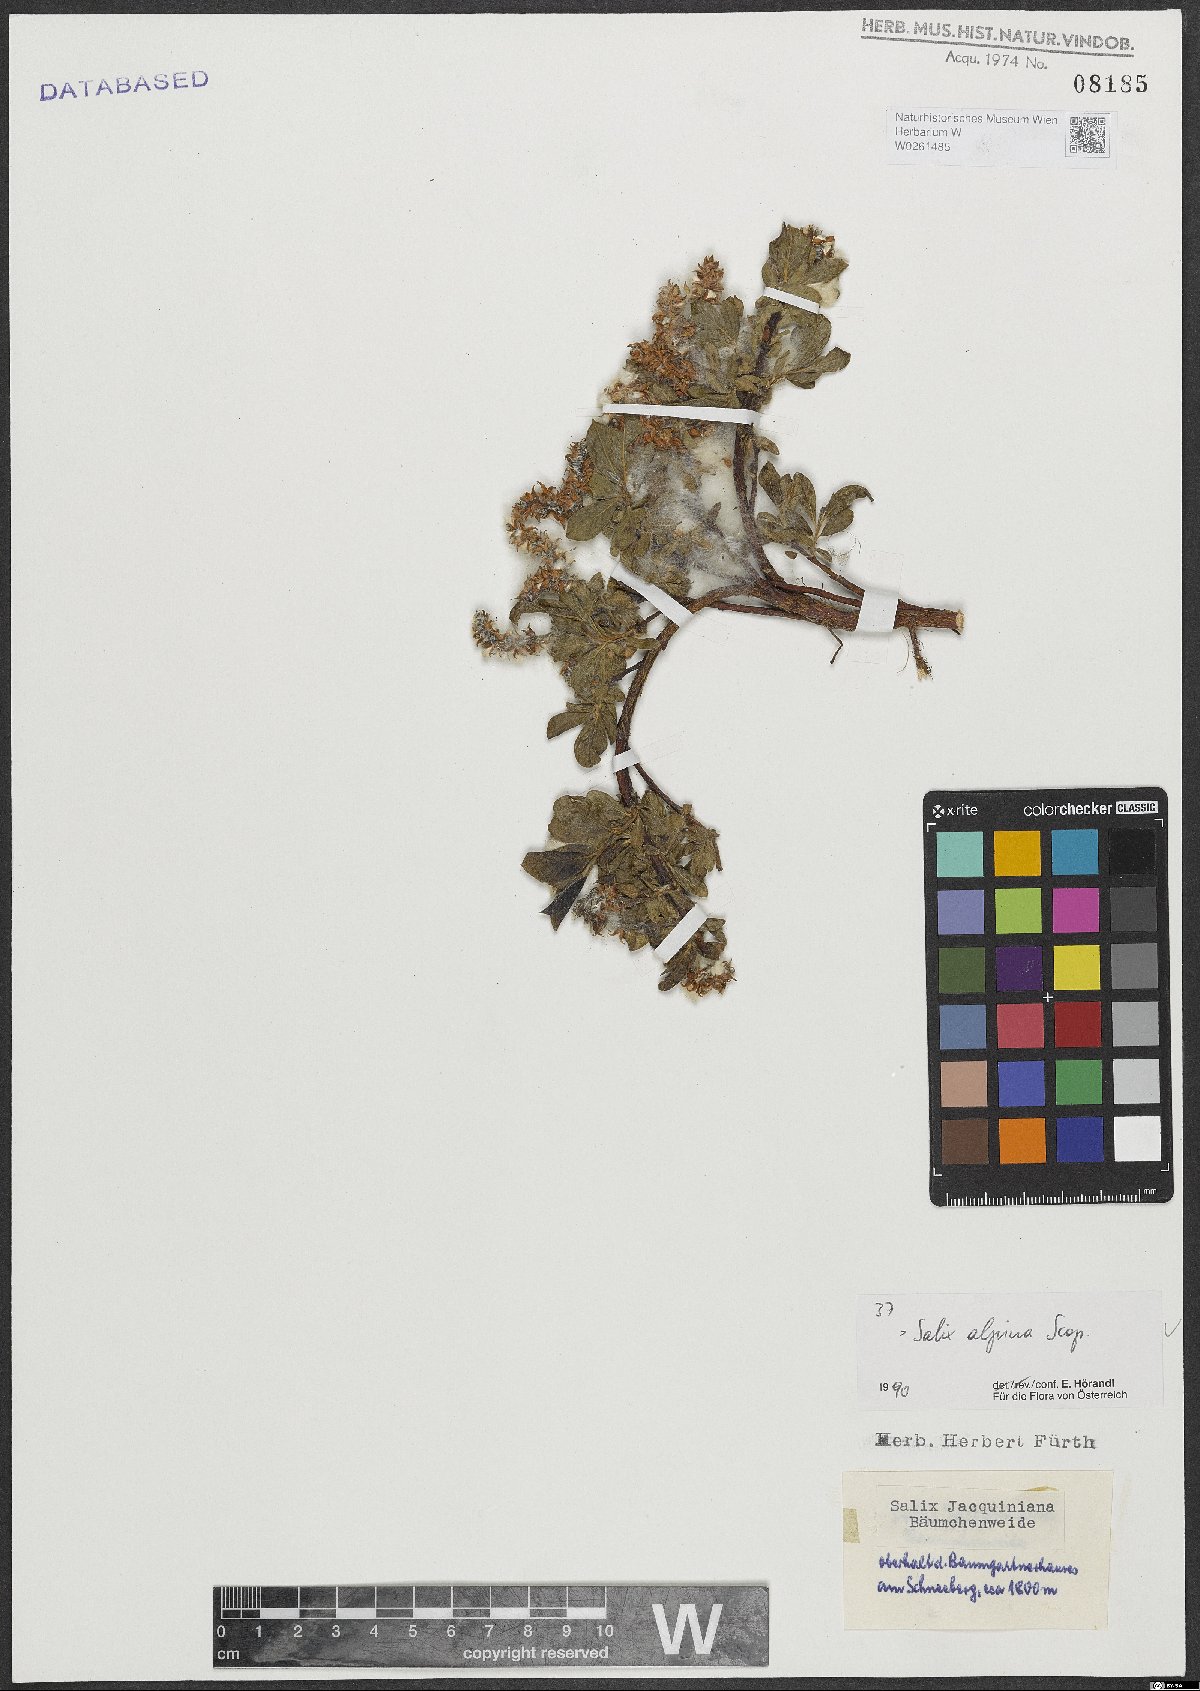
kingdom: Plantae
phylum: Tracheophyta
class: Magnoliopsida
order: Malpighiales
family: Salicaceae
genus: Salix
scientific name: Salix alpina
